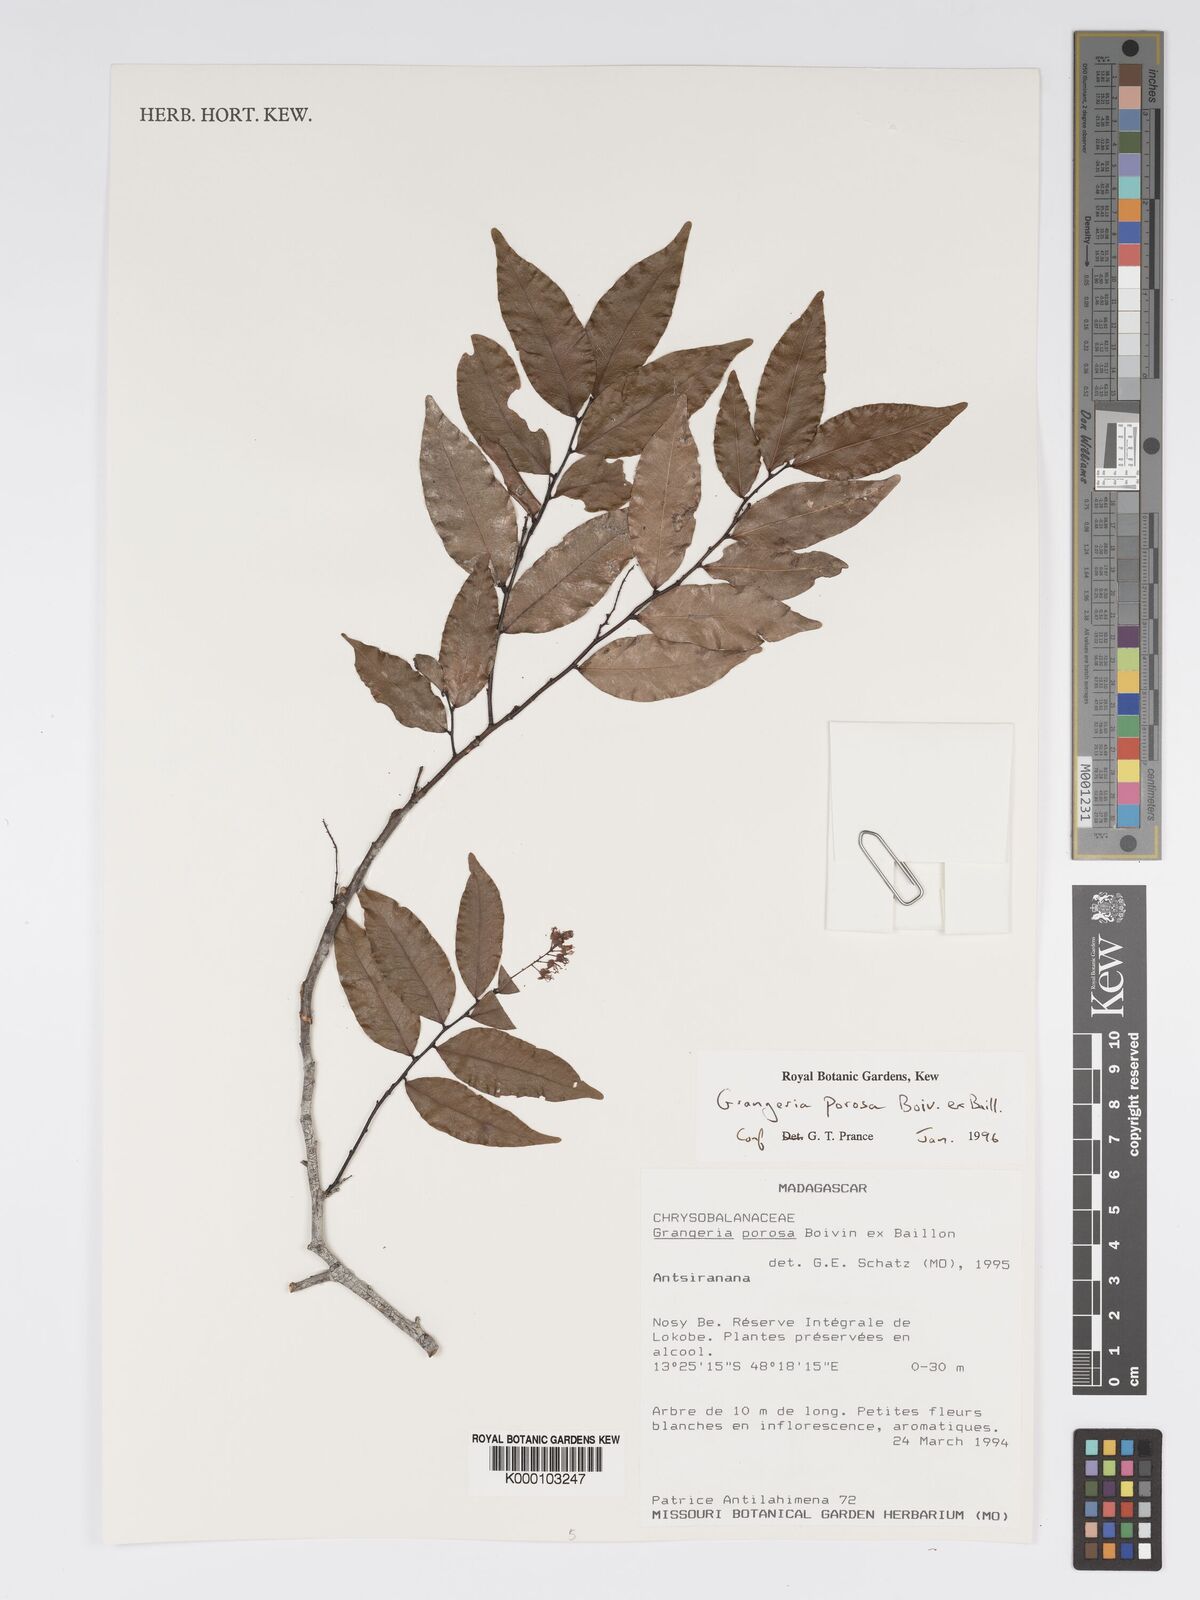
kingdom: Plantae
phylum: Tracheophyta
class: Magnoliopsida
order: Malpighiales
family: Chrysobalanaceae
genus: Grangeria
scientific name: Grangeria porosa
